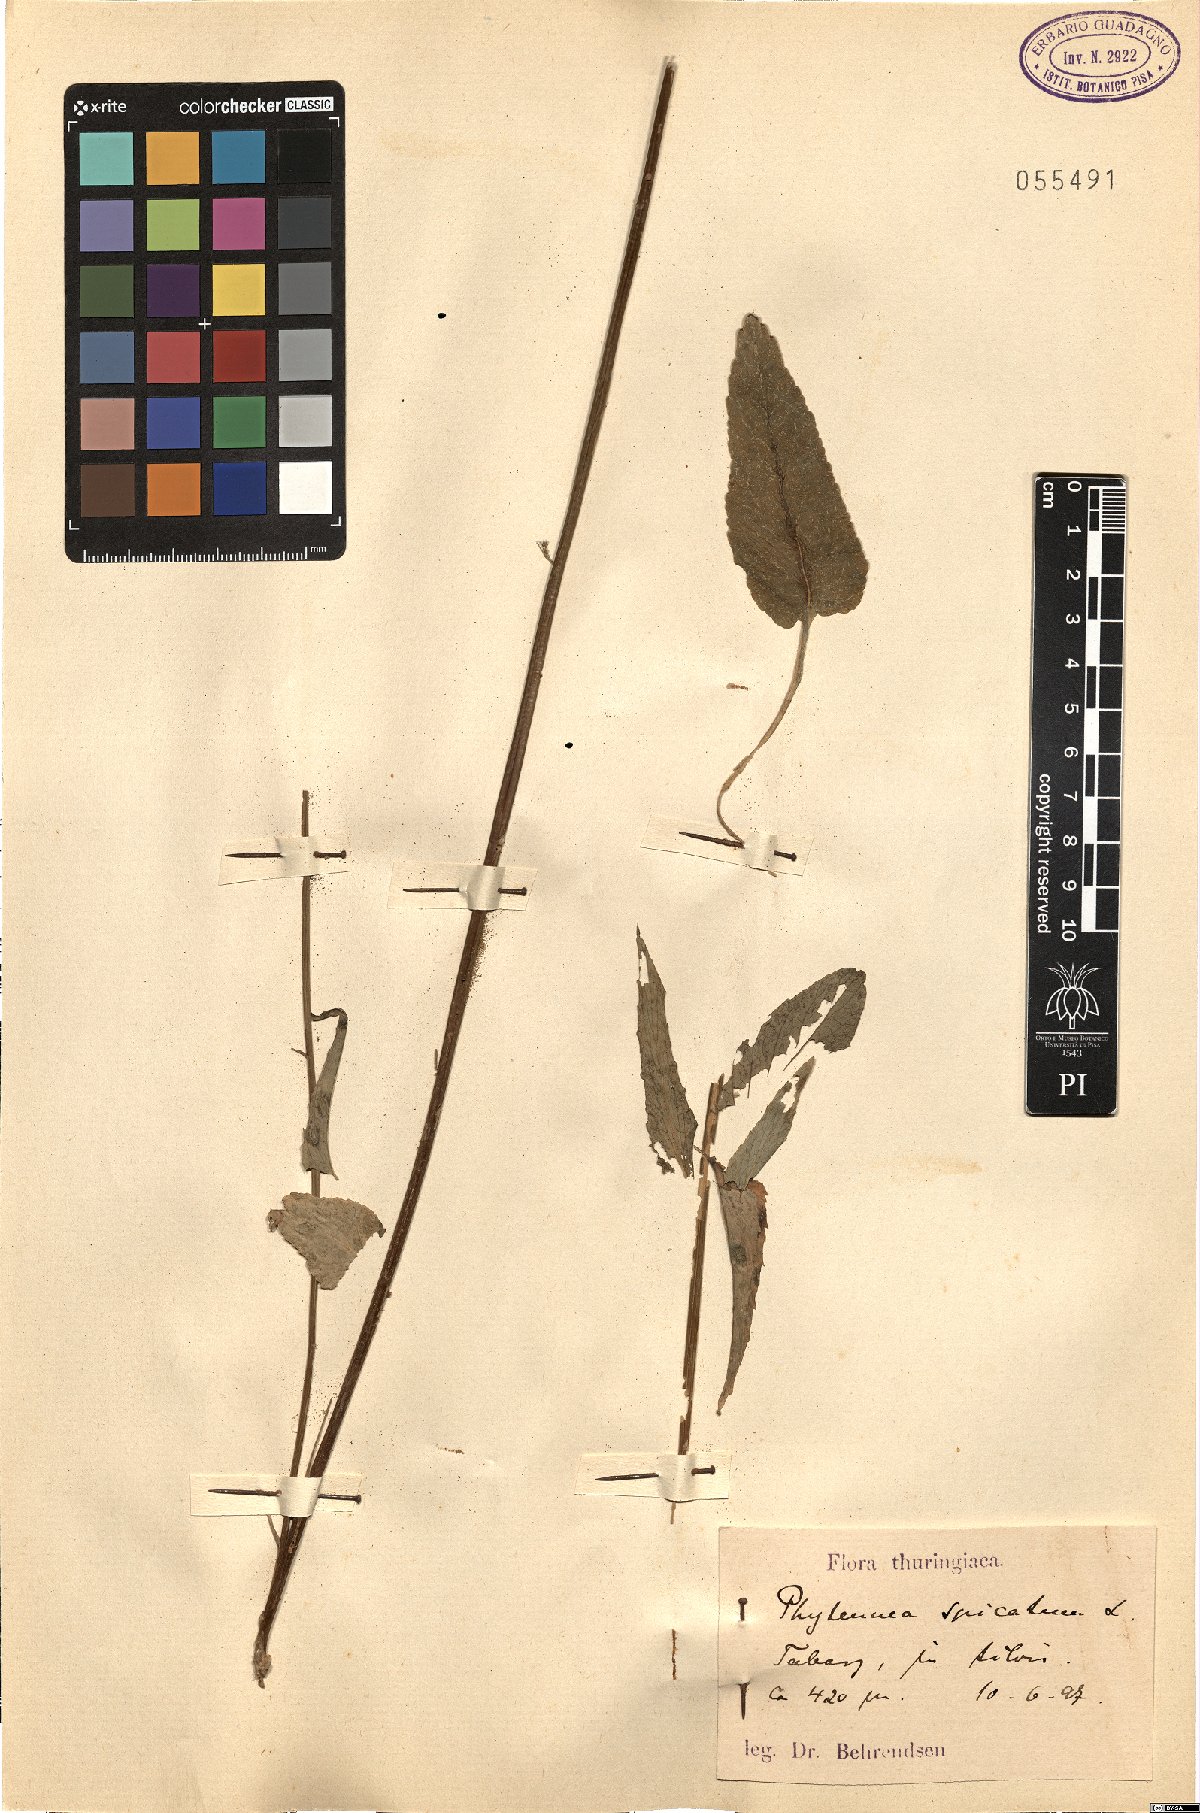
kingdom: Plantae
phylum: Tracheophyta
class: Magnoliopsida
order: Asterales
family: Campanulaceae
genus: Phyteuma
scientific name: Phyteuma spicatum
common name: Spiked rampion
